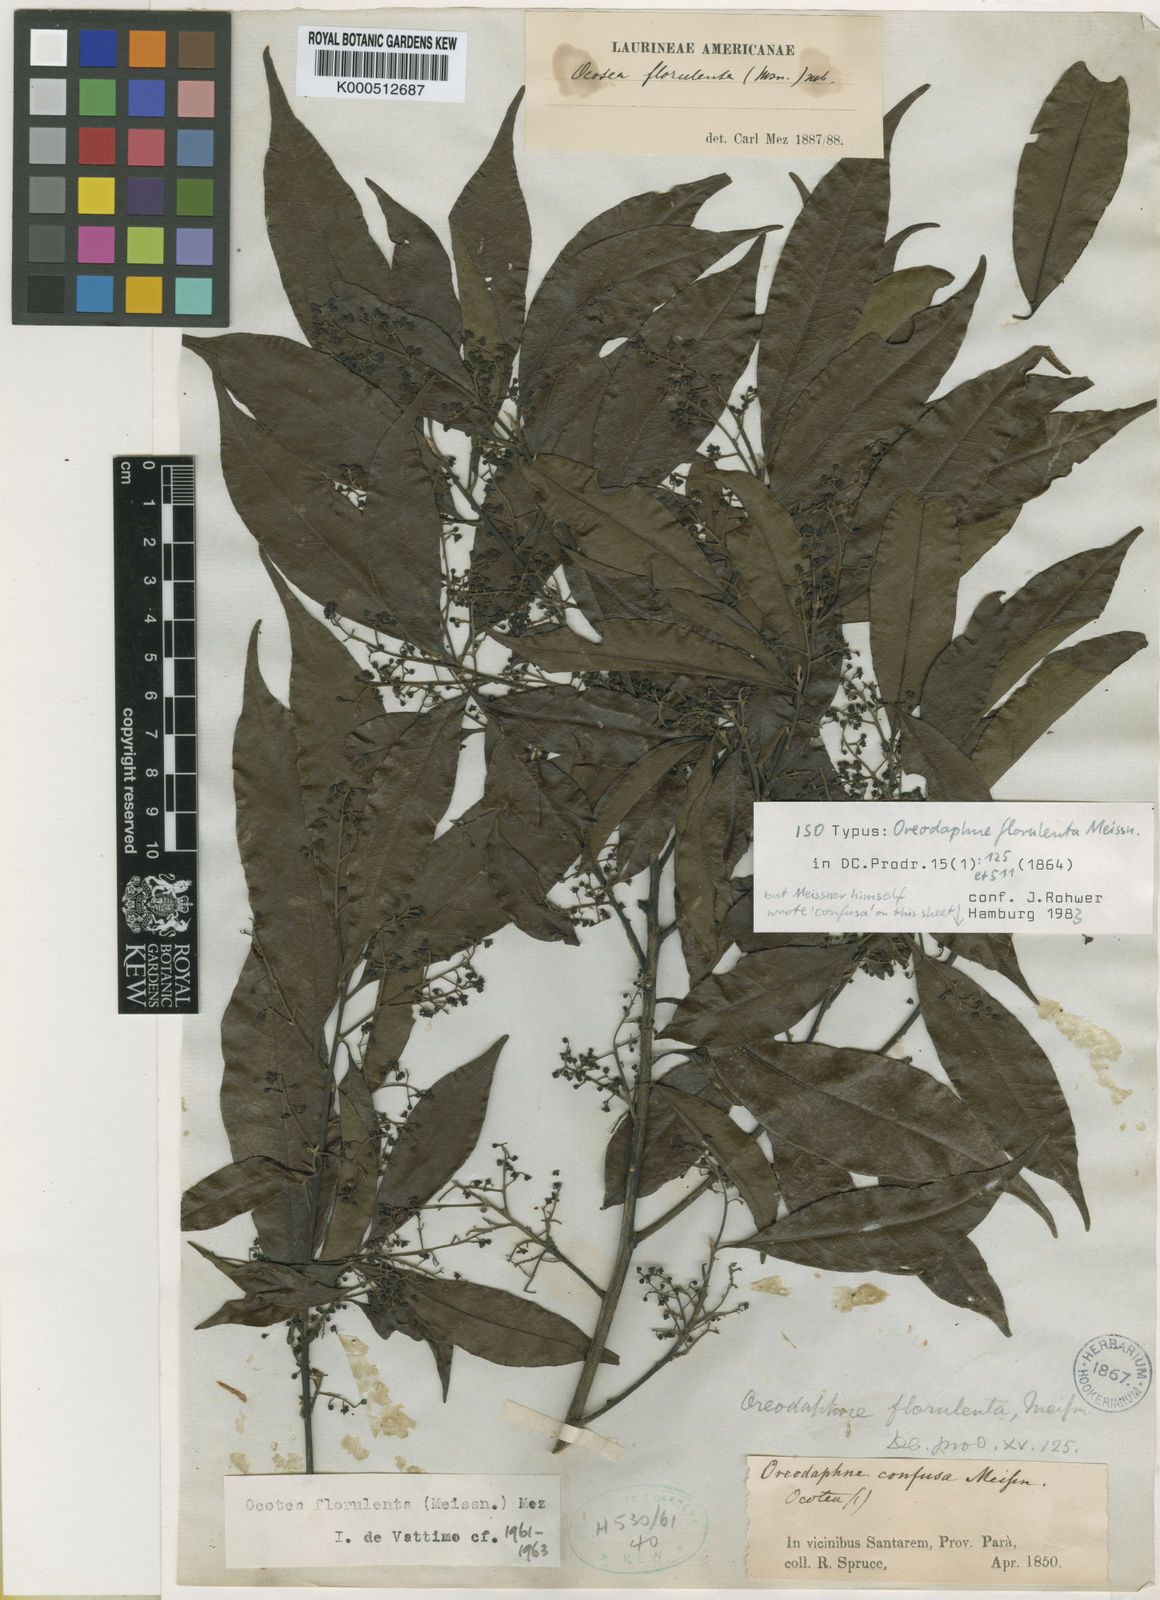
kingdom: Plantae
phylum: Tracheophyta
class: Magnoliopsida
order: Laurales
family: Lauraceae
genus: Ocotea
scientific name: Ocotea neesiana
